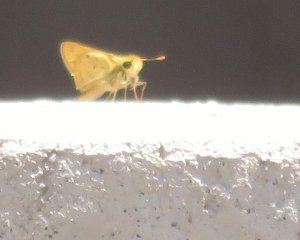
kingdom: Animalia
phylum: Arthropoda
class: Insecta
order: Lepidoptera
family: Hesperiidae
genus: Hylephila
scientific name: Hylephila phyleus
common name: Fiery Skipper
